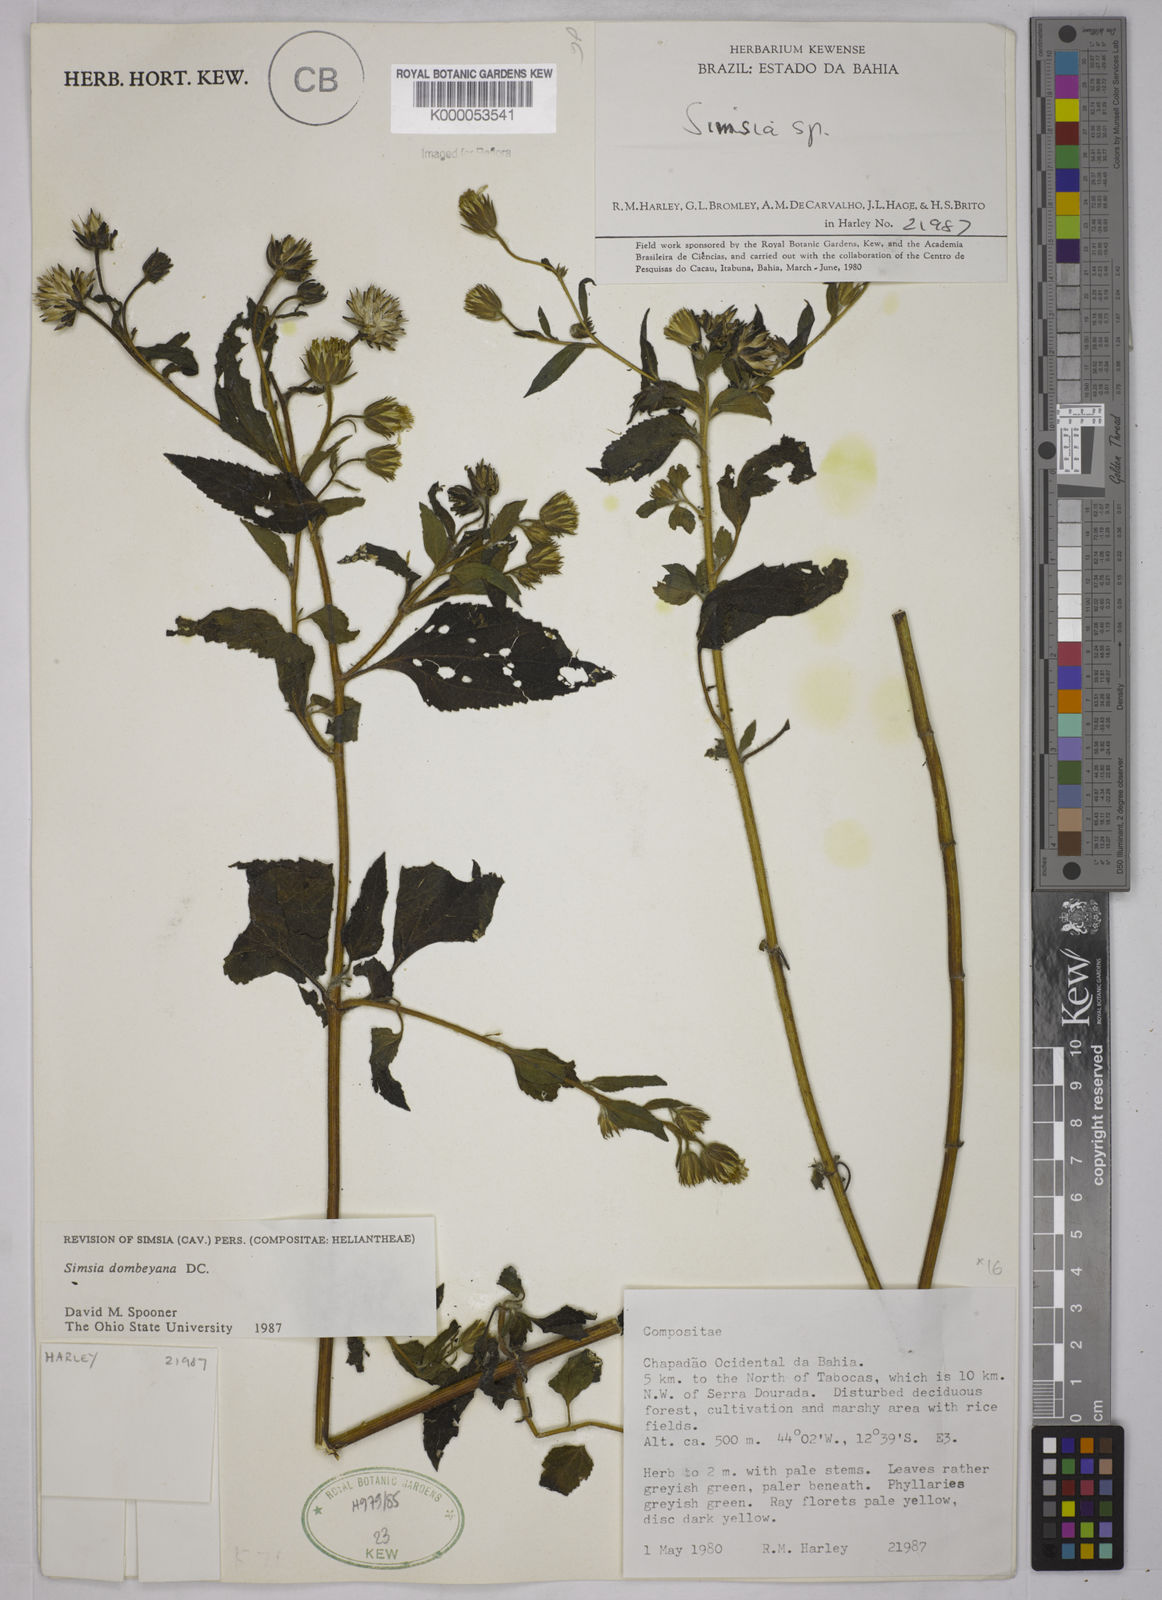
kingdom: Plantae
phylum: Tracheophyta
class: Magnoliopsida
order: Asterales
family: Asteraceae
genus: Simsia
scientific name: Simsia dombeyana
